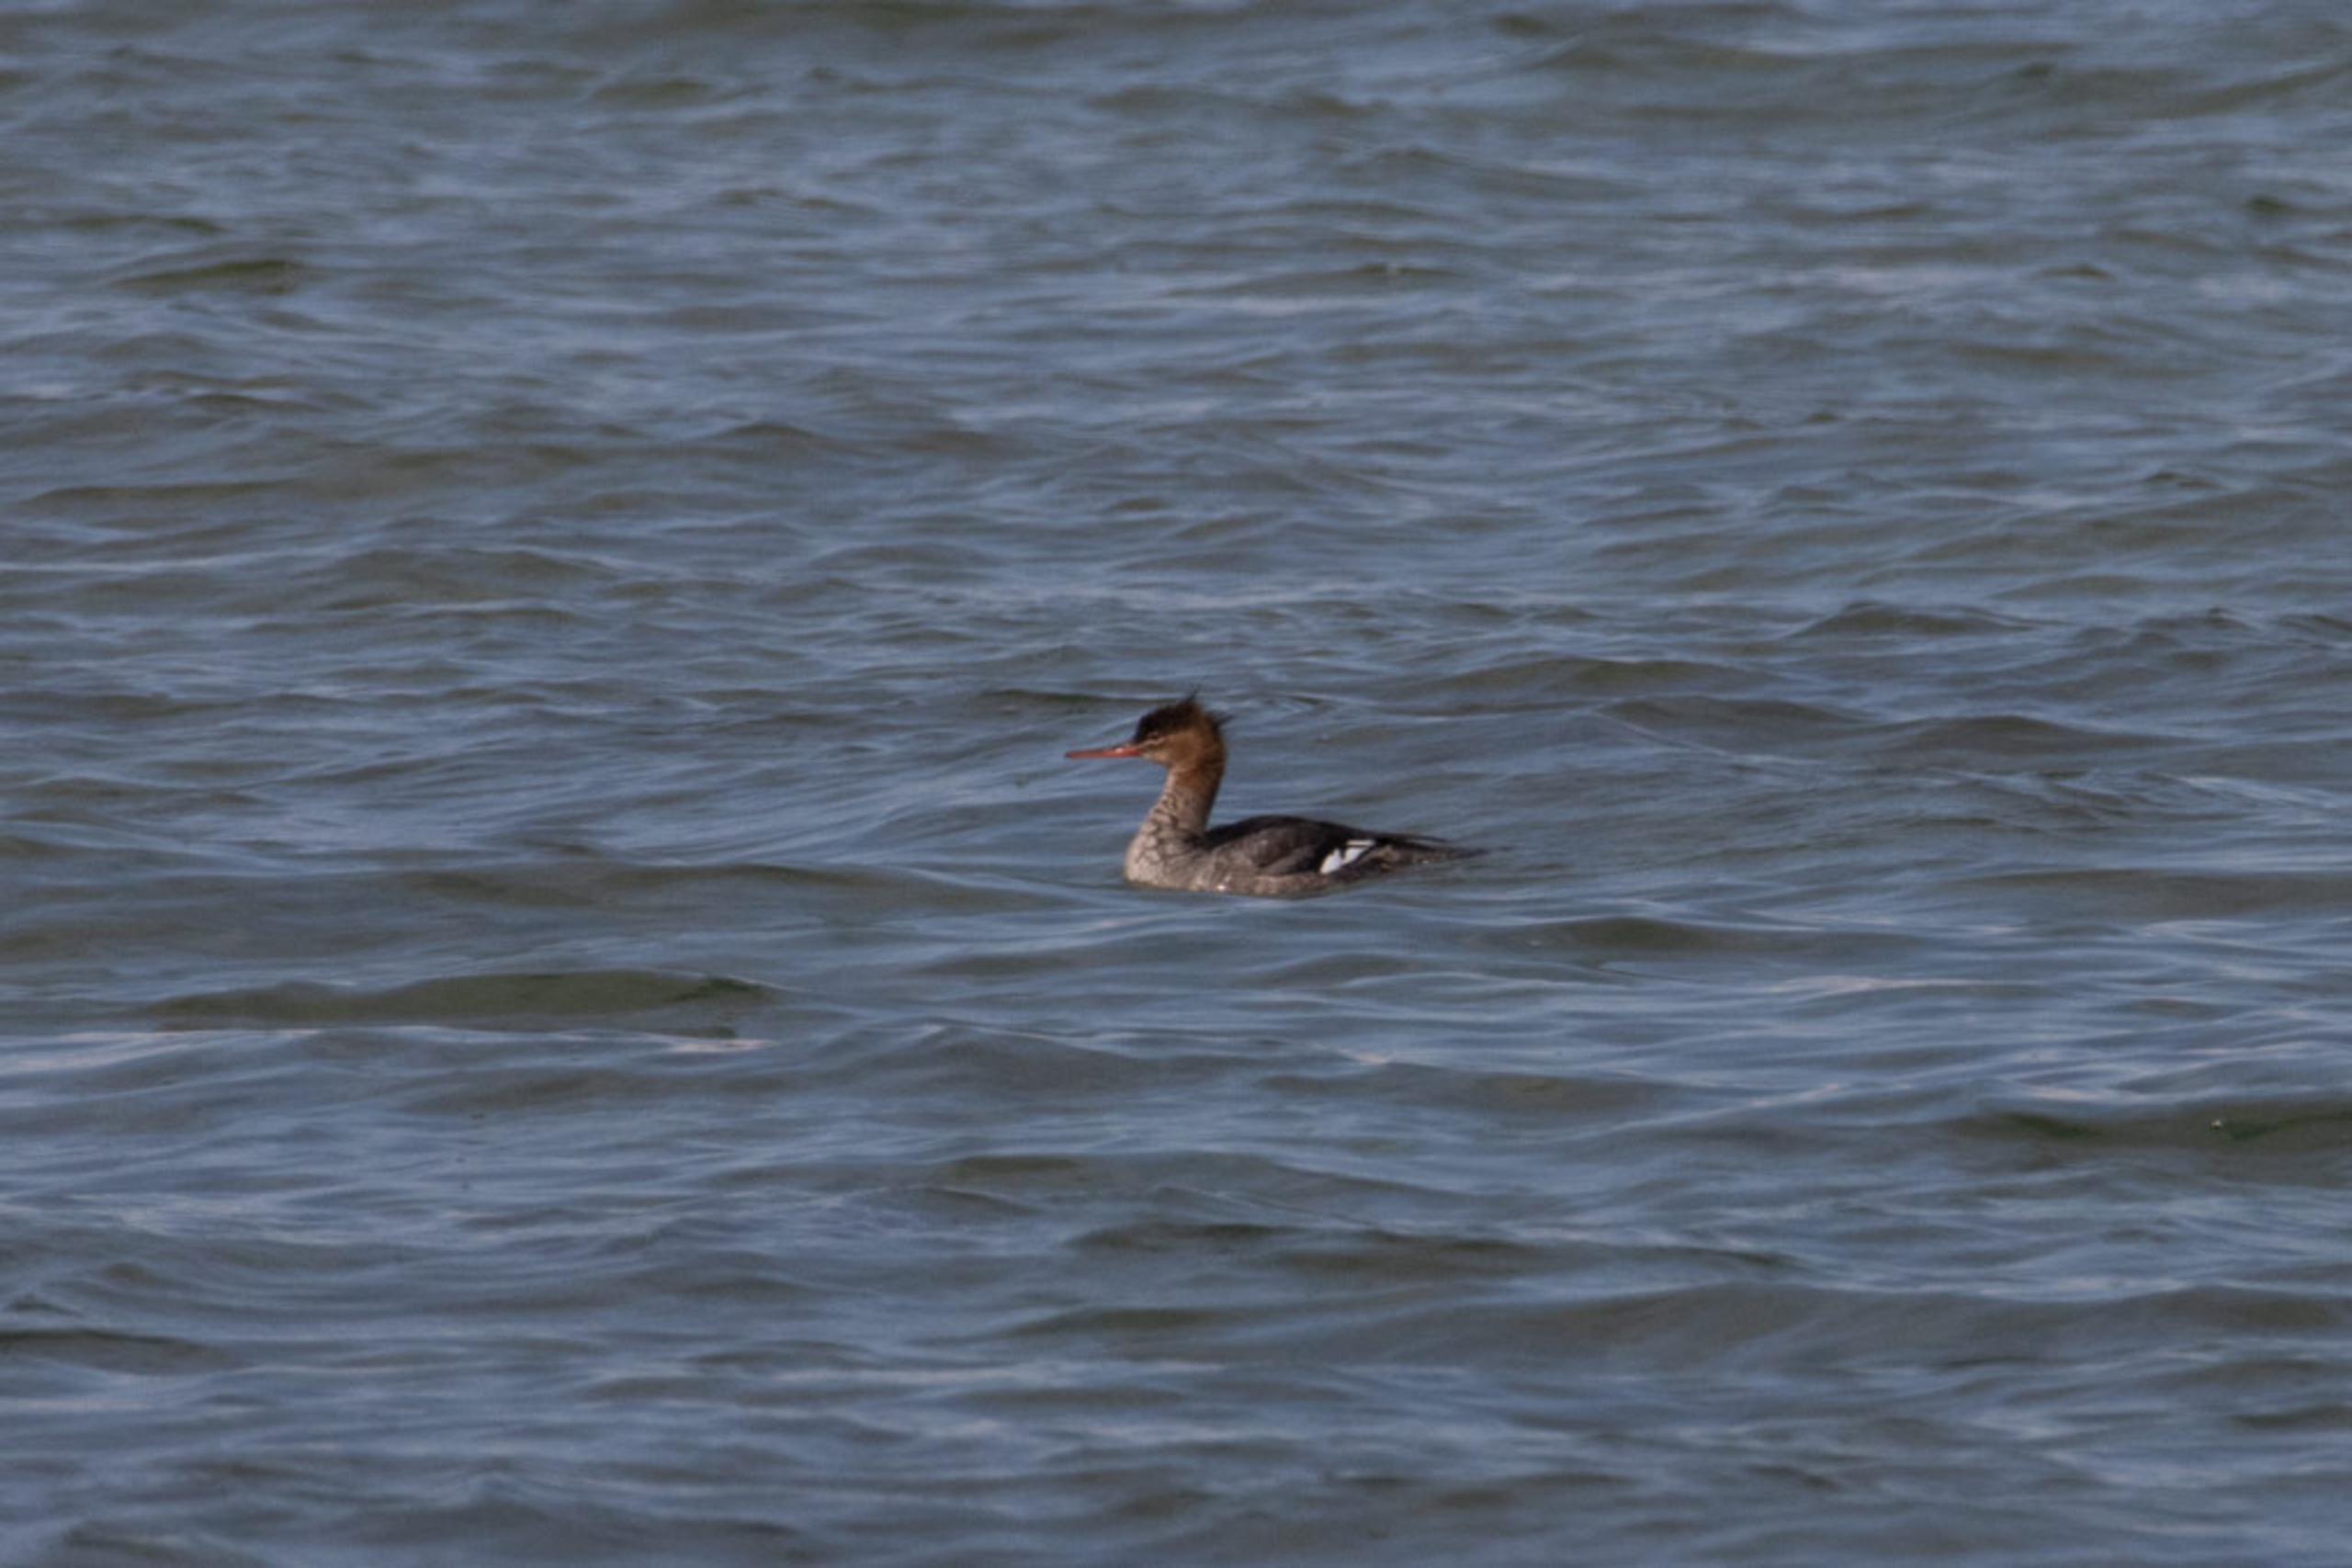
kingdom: Animalia
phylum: Chordata
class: Aves
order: Anseriformes
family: Anatidae
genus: Mergus
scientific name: Mergus serrator
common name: Toppet skallesluger
